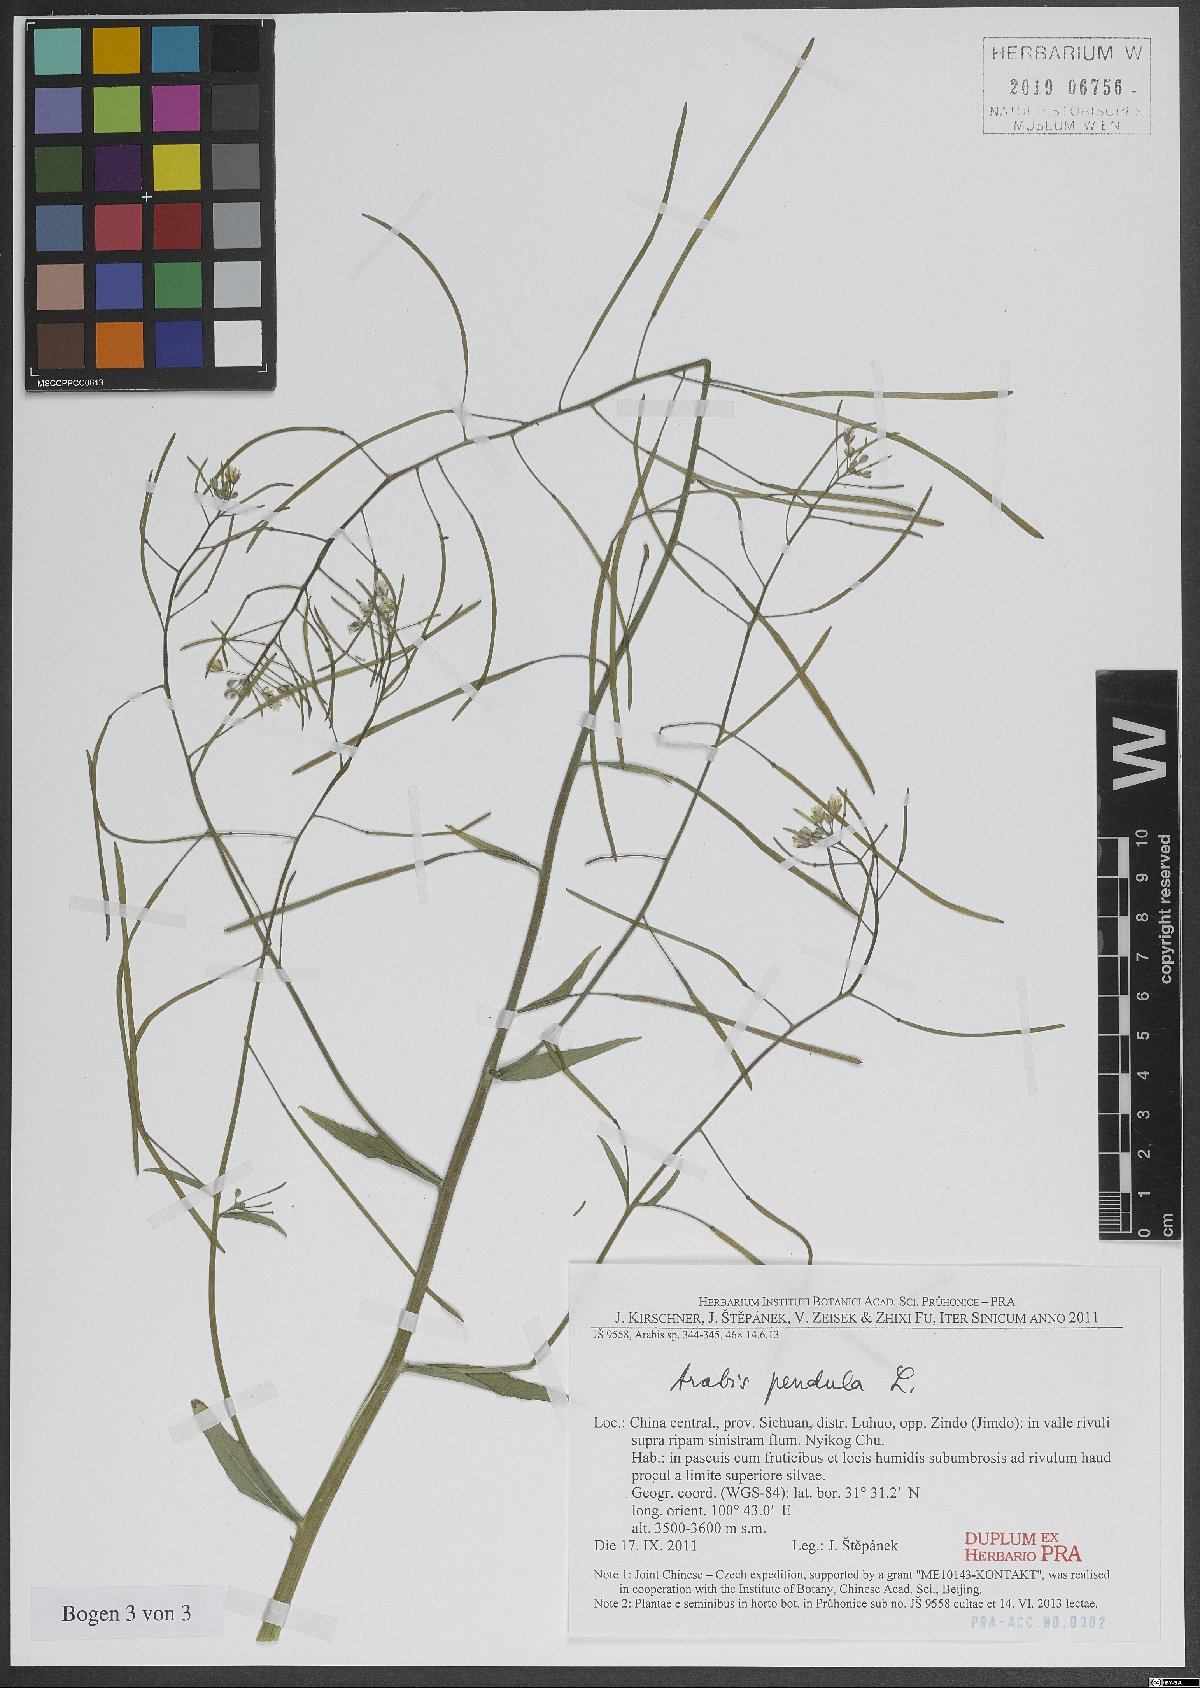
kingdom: Plantae
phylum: Tracheophyta
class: Magnoliopsida
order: Brassicales
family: Brassicaceae
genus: Catolobus
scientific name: Catolobus pendulus
